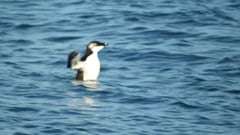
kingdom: Animalia
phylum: Chordata
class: Aves
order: Charadriiformes
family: Alcidae
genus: Alca
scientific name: Alca torda
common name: Razorbill
